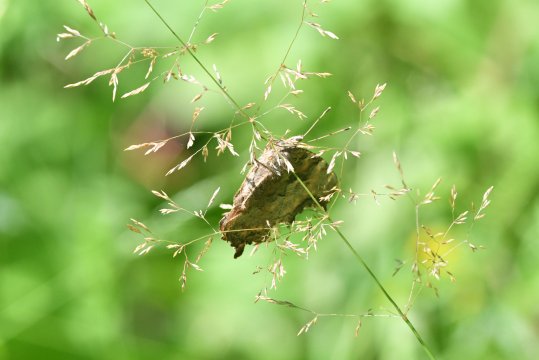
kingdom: Animalia
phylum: Arthropoda
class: Insecta
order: Lepidoptera
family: Nymphalidae
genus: Polygonia
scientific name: Polygonia faunus
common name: Green Comma
